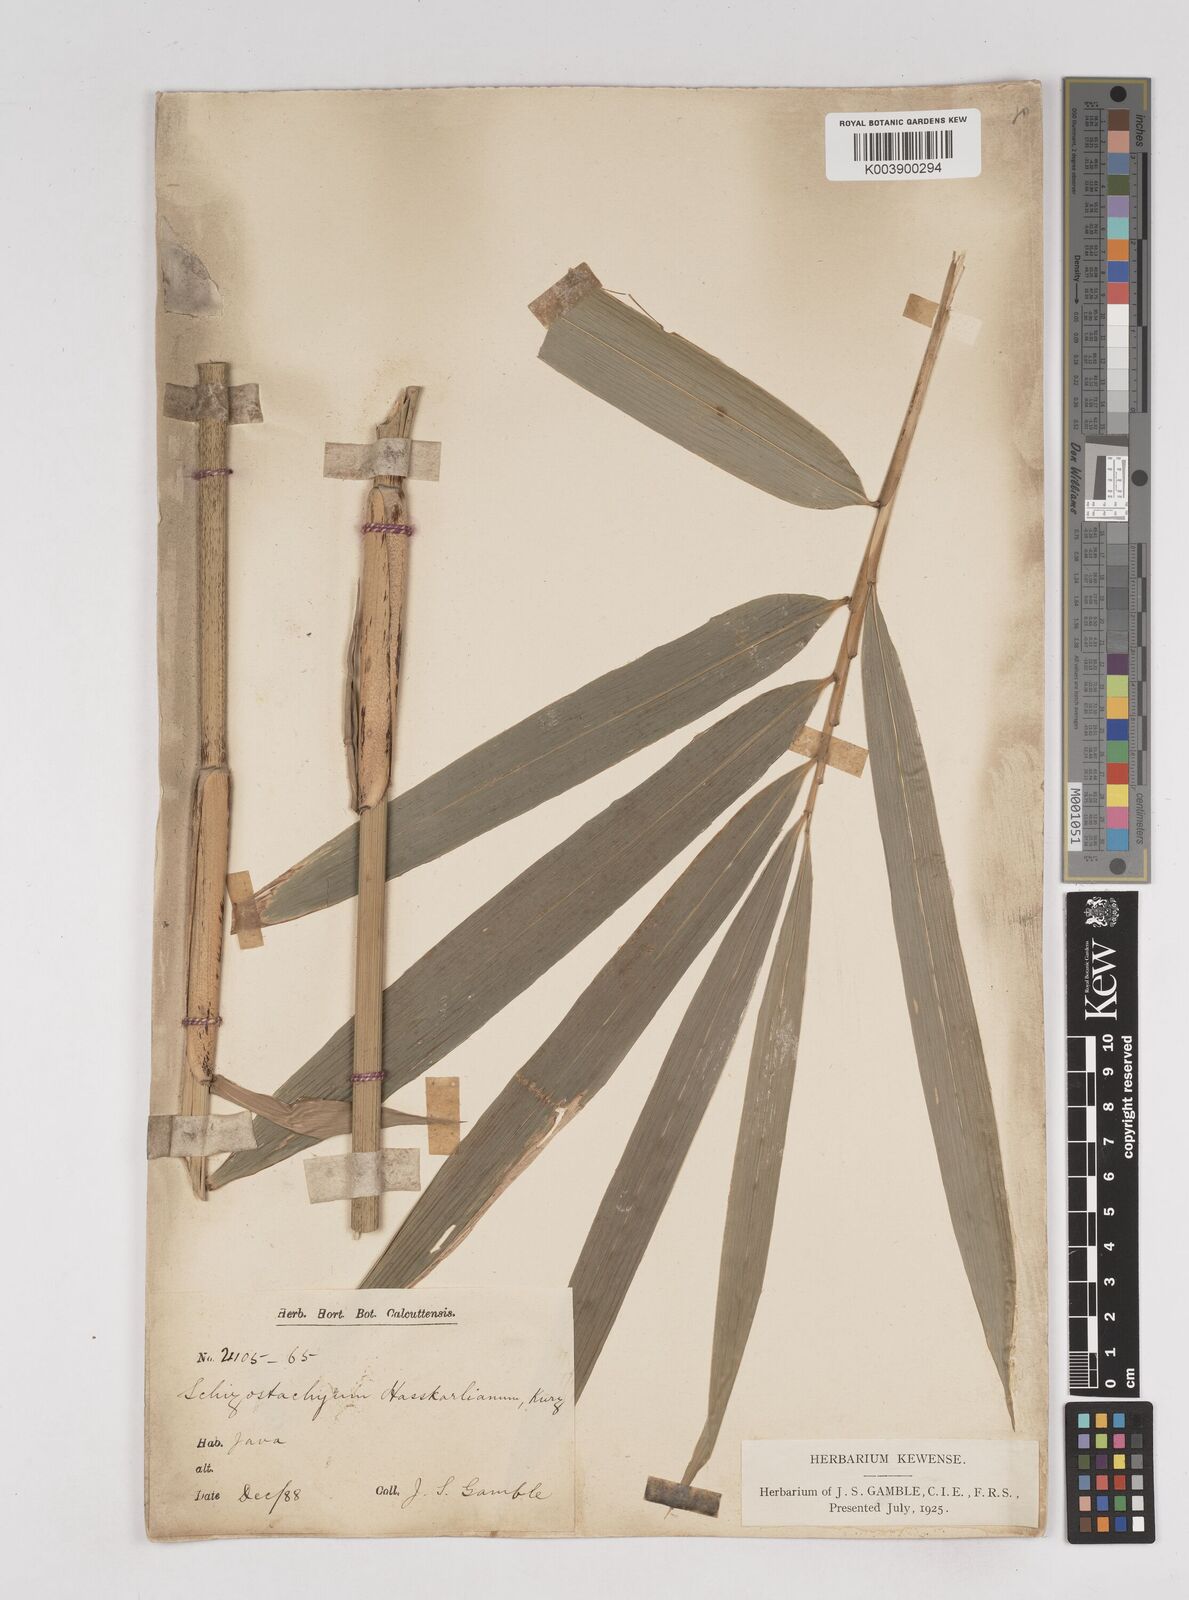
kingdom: Plantae
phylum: Tracheophyta
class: Liliopsida
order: Poales
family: Poaceae
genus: Gigantochloa
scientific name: Gigantochloa hasskarliana
